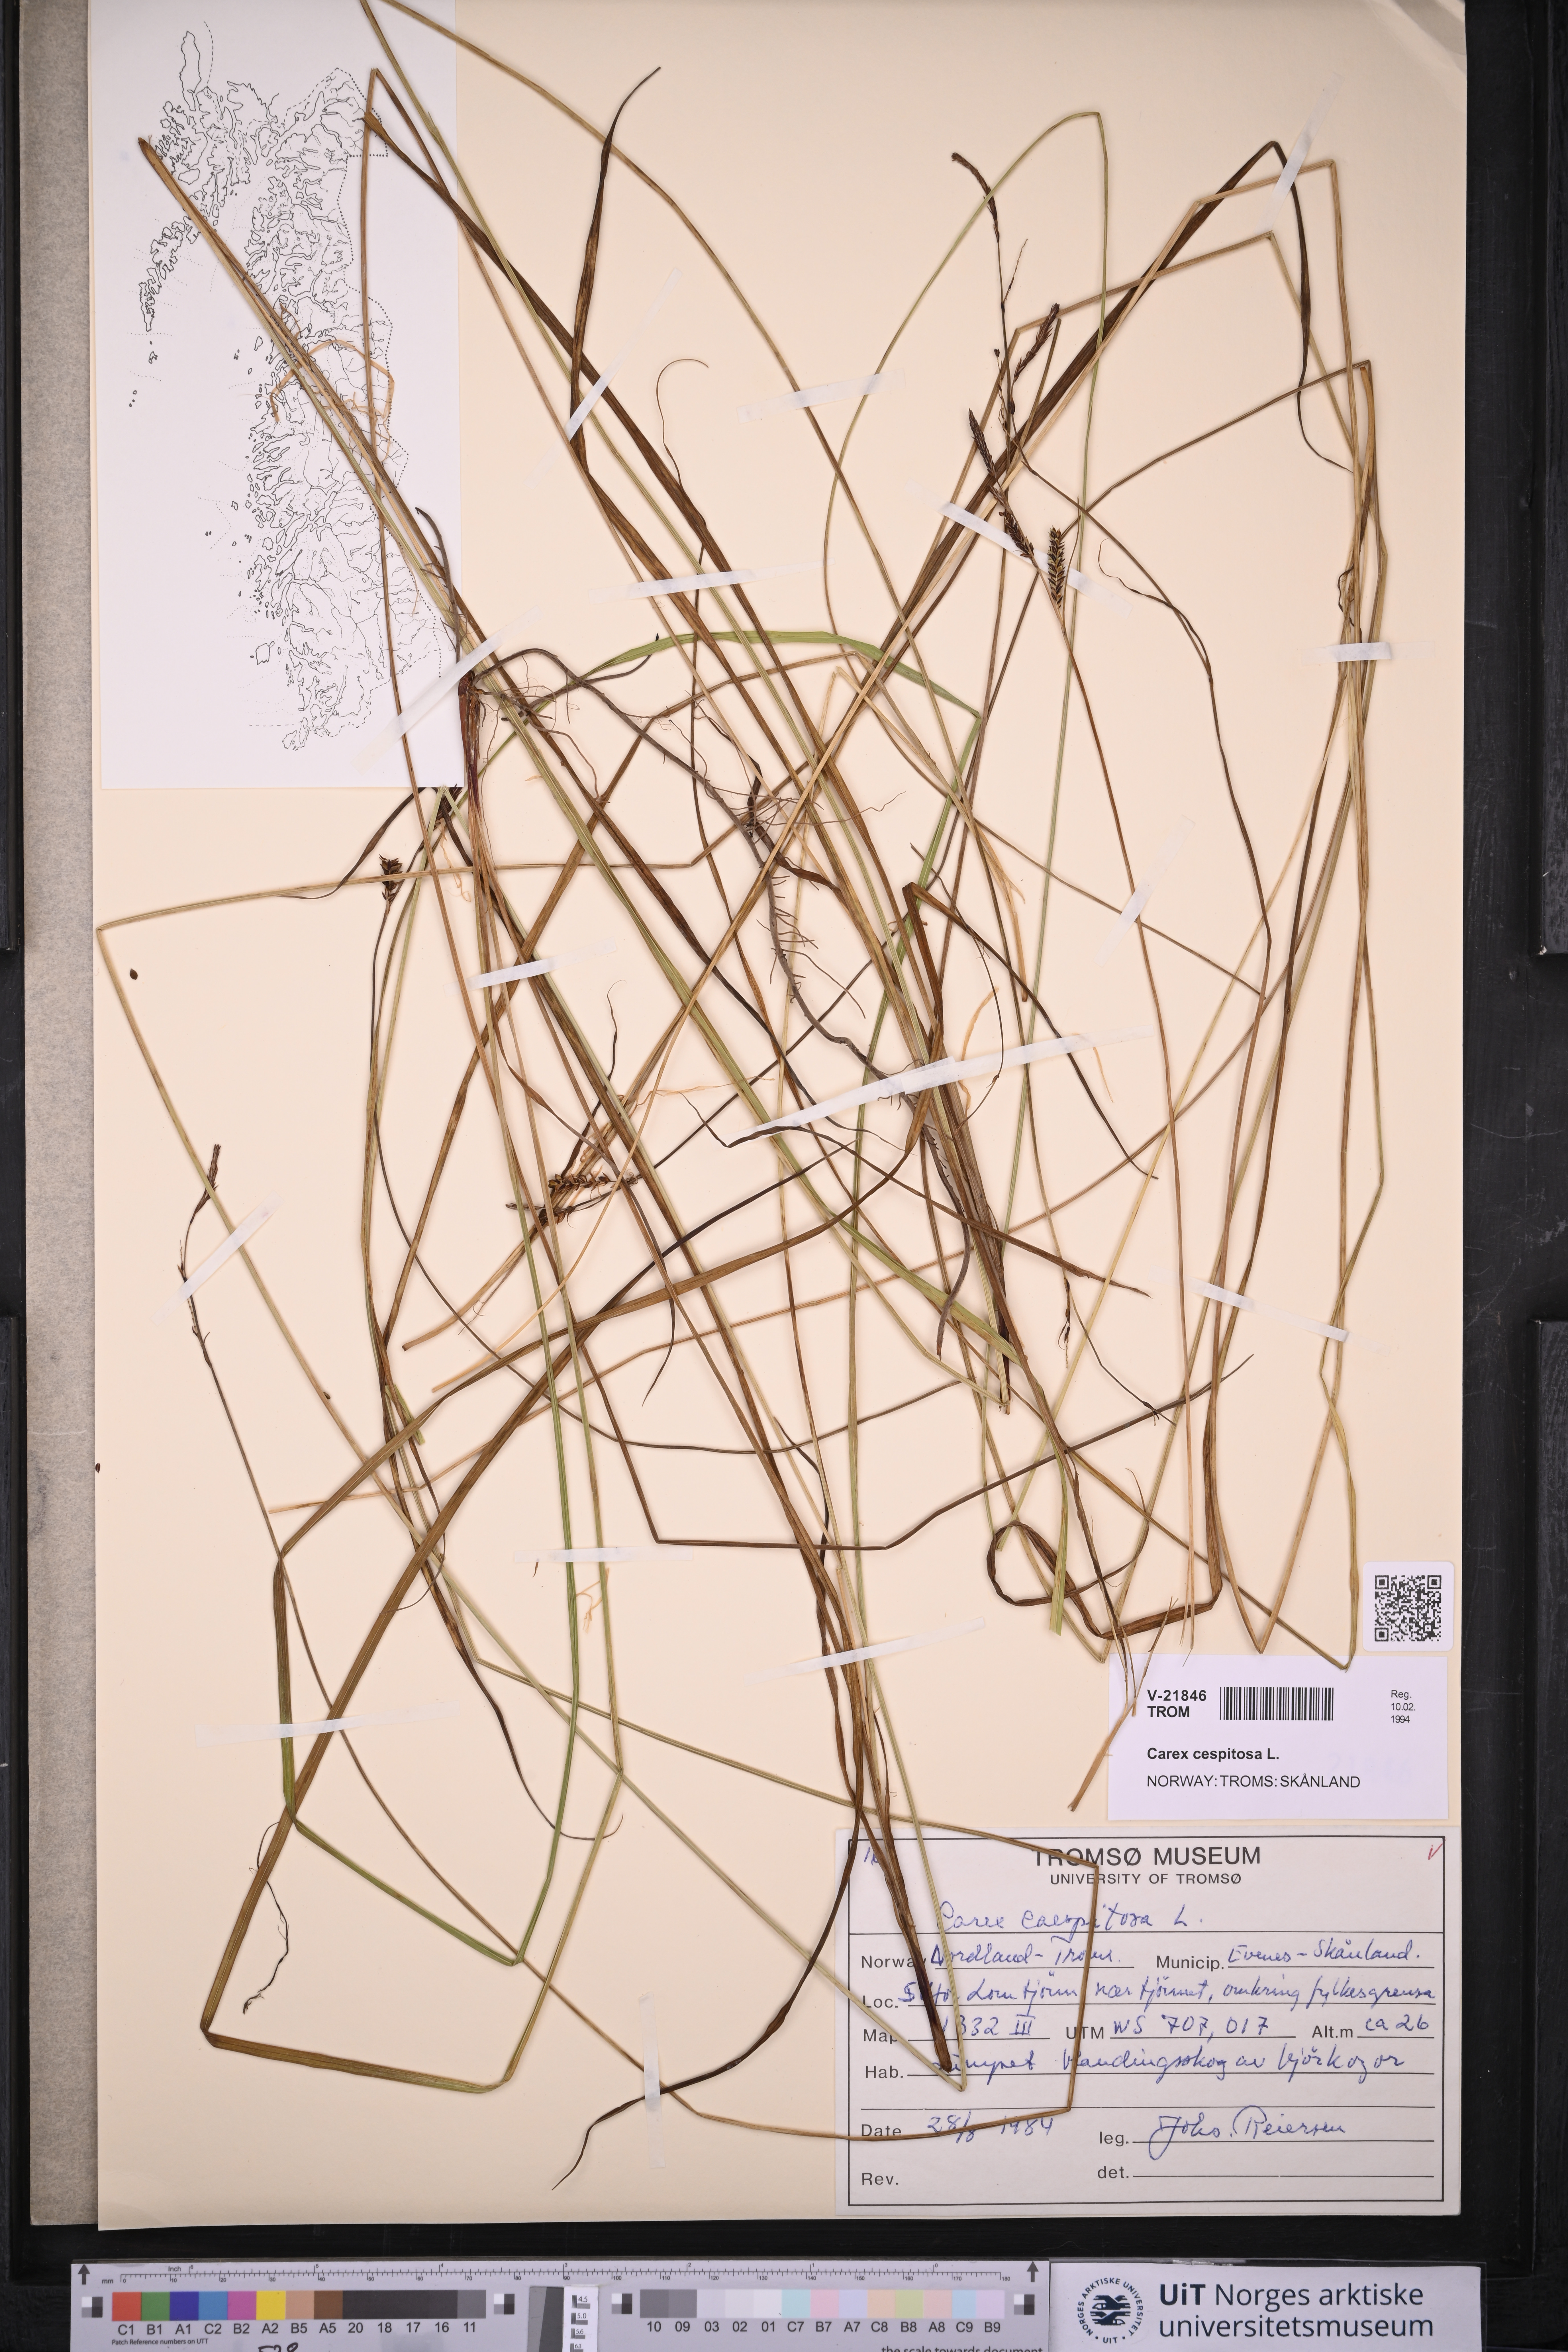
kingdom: Plantae
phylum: Tracheophyta
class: Liliopsida
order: Poales
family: Cyperaceae
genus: Carex
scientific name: Carex cespitosa
